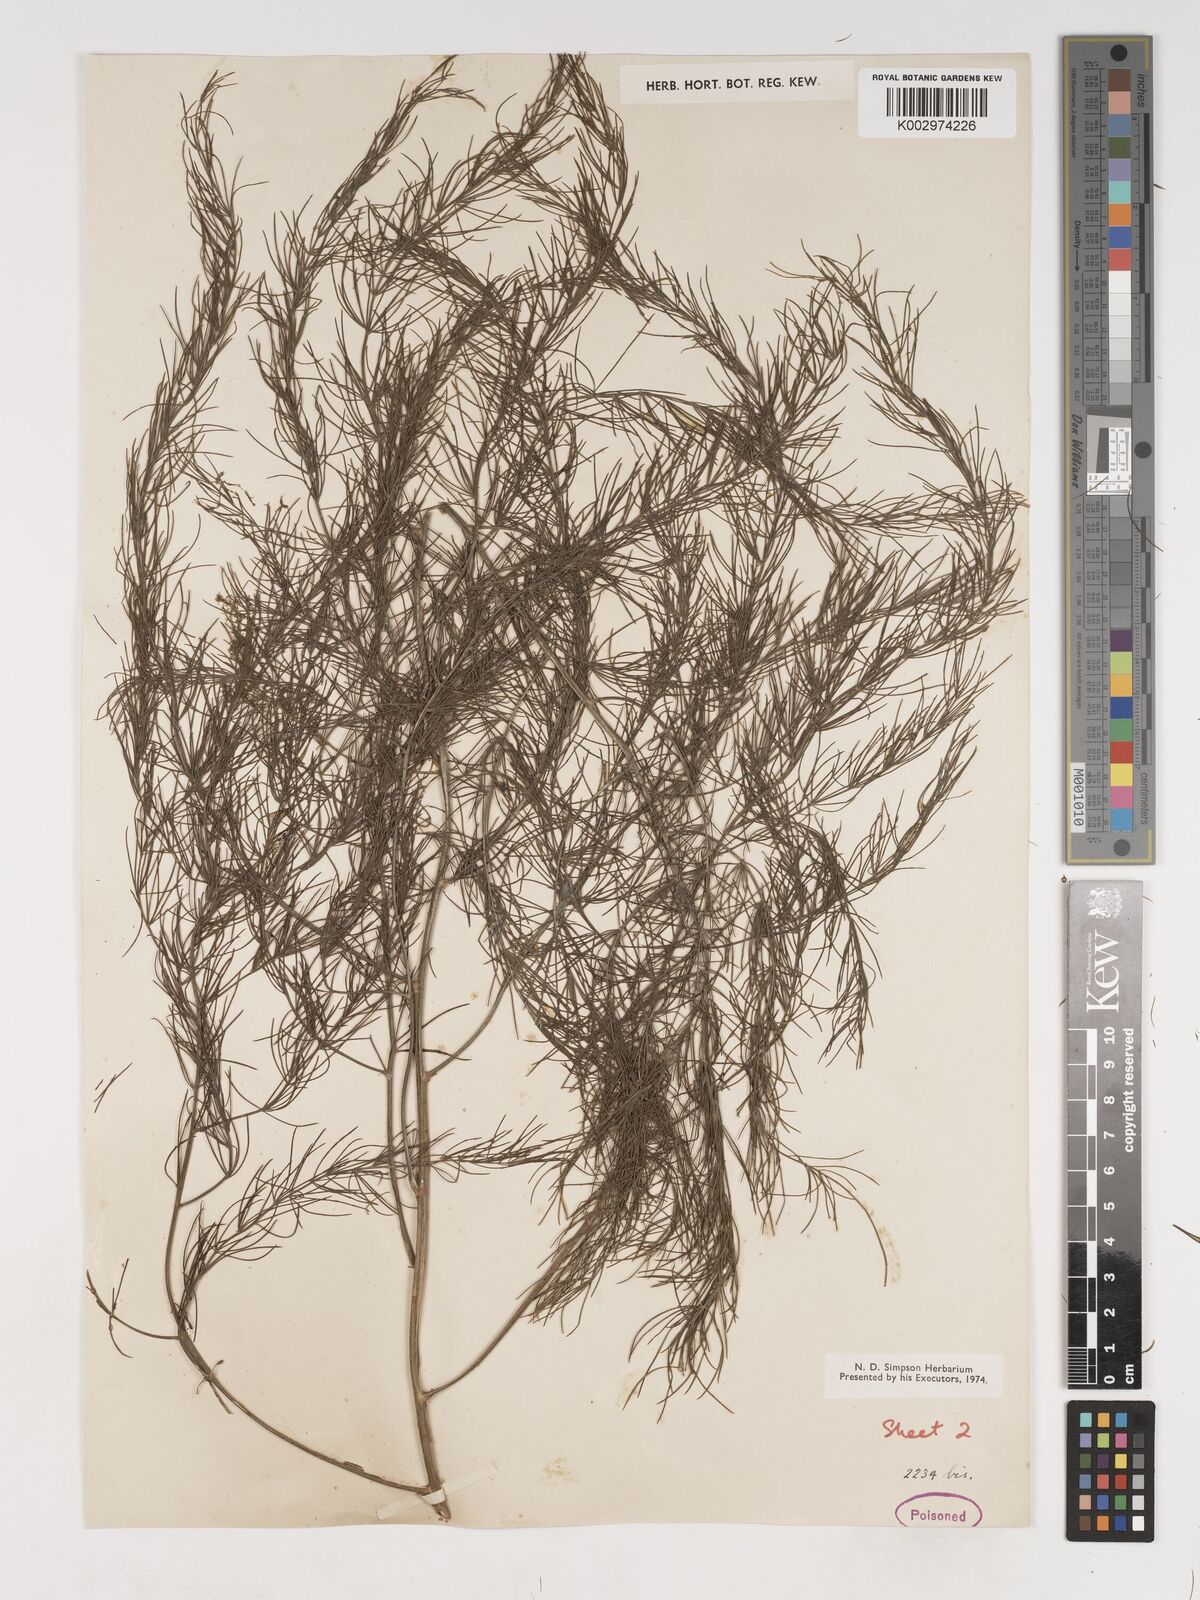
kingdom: Plantae
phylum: Tracheophyta
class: Liliopsida
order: Asparagales
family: Asparagaceae
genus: Asparagus
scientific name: Asparagus officinalis
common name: Garden asparagus
